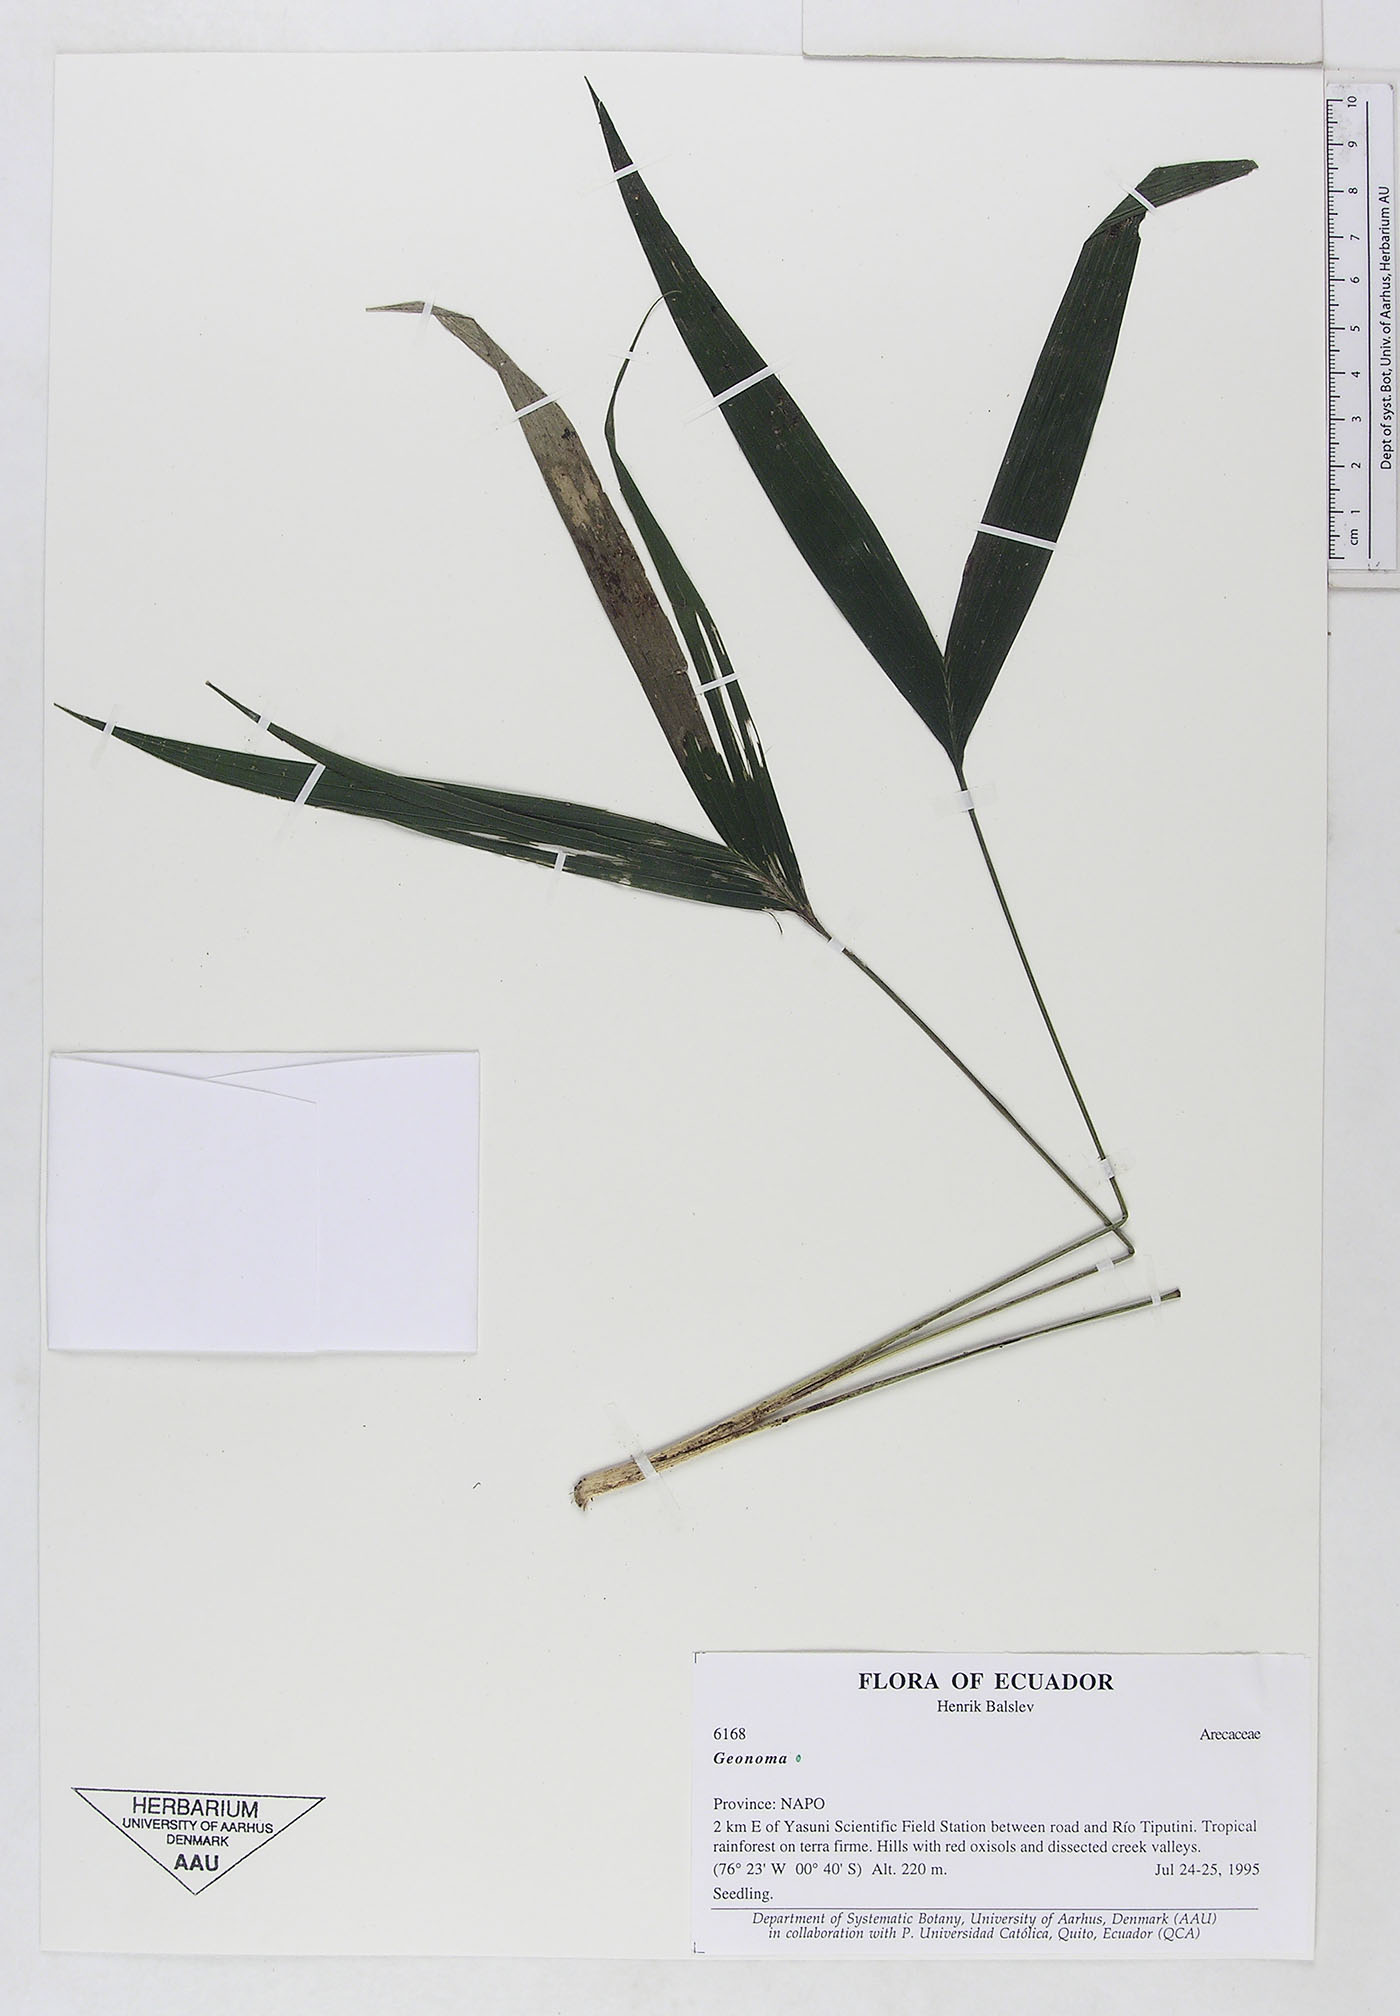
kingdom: Plantae
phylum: Tracheophyta
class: Liliopsida
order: Arecales
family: Arecaceae
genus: Geonoma
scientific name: Geonoma
